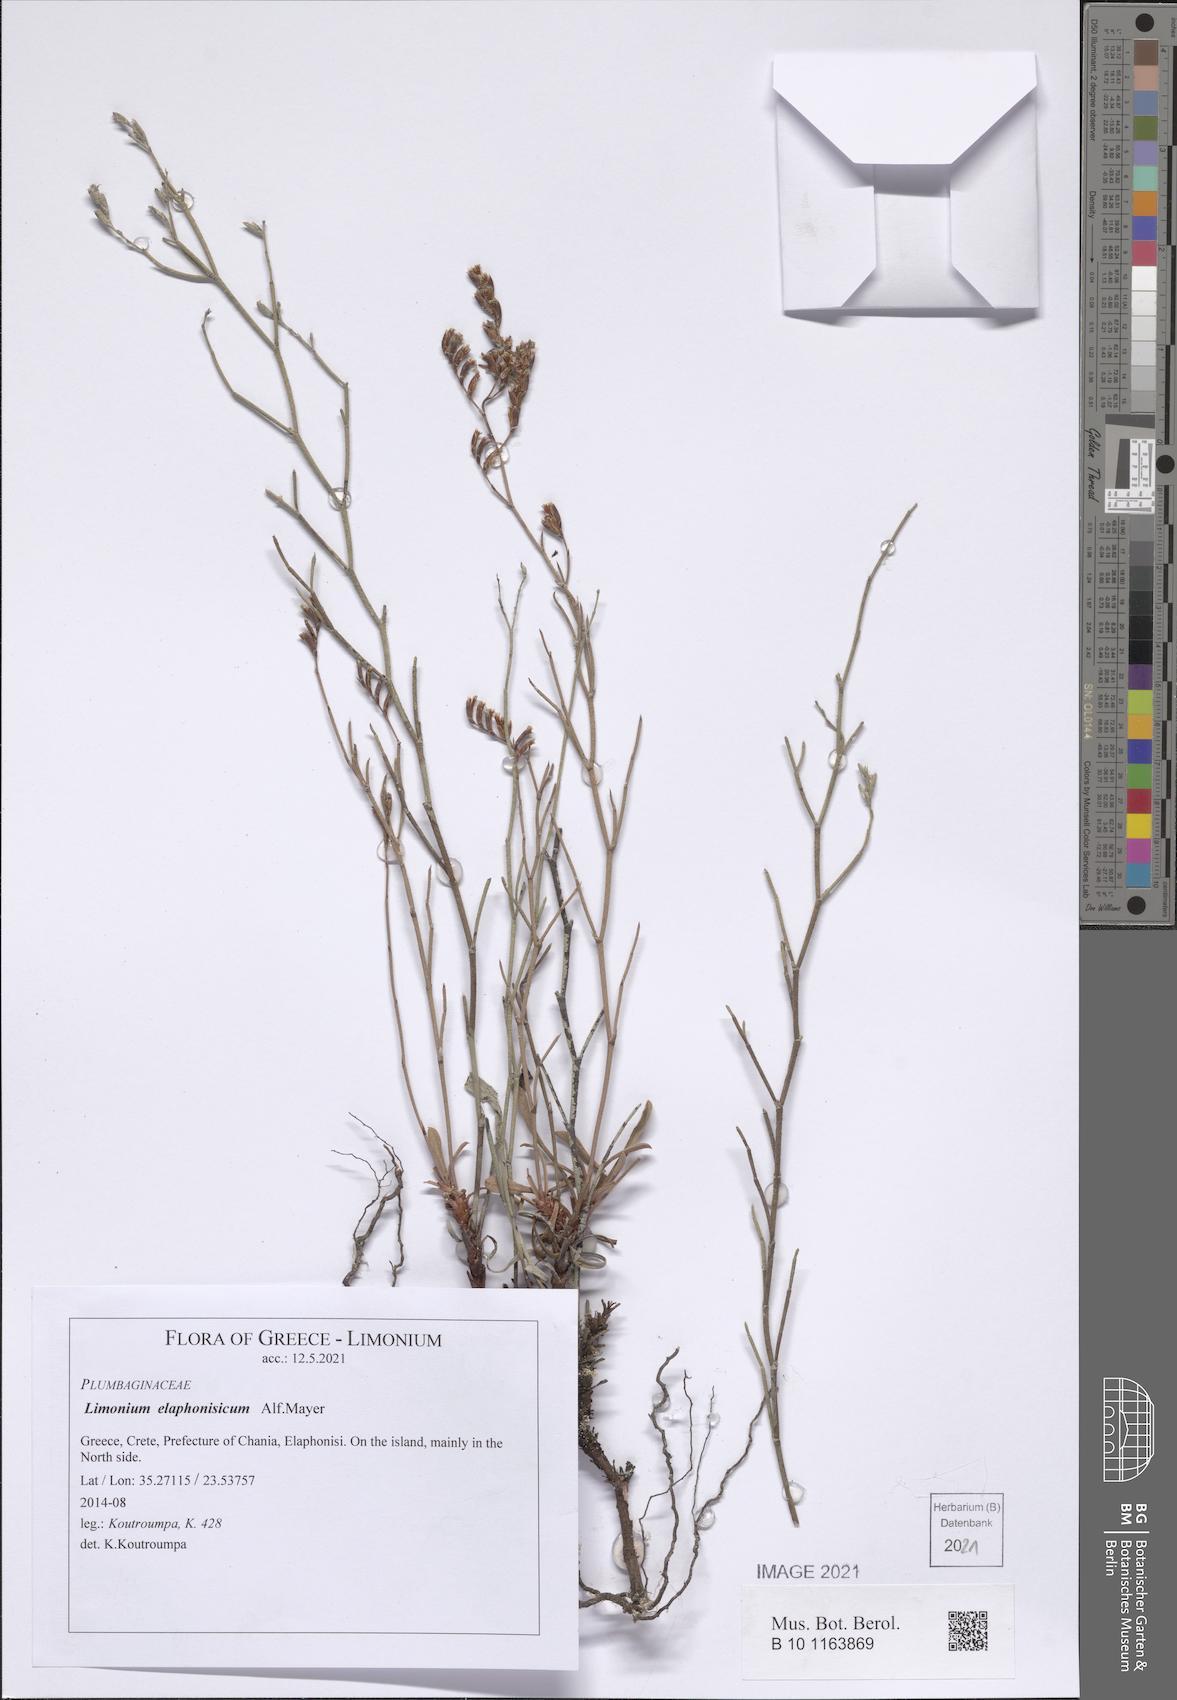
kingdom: Plantae
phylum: Tracheophyta
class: Magnoliopsida
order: Caryophyllales
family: Plumbaginaceae
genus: Limonium
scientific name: Limonium elaphonisicum
